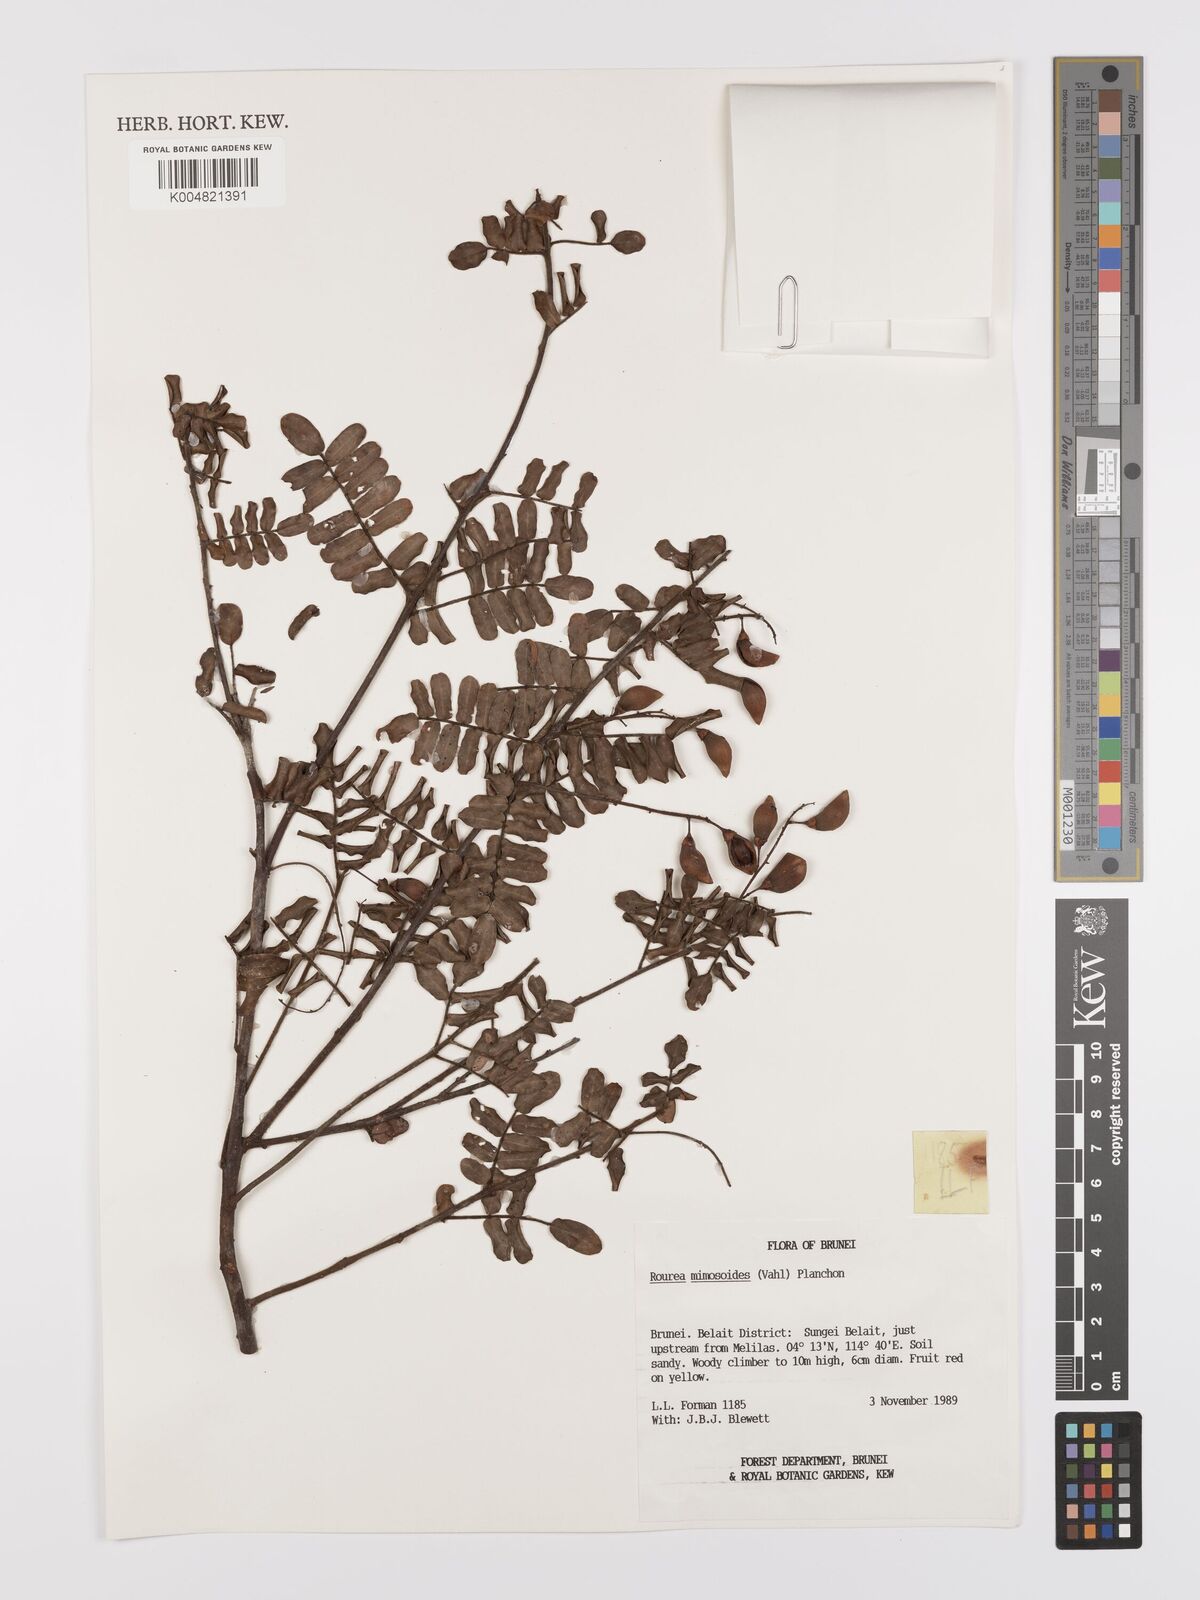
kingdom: Plantae
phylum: Tracheophyta
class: Magnoliopsida
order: Oxalidales
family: Connaraceae
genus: Rourea
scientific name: Rourea mimosoides
